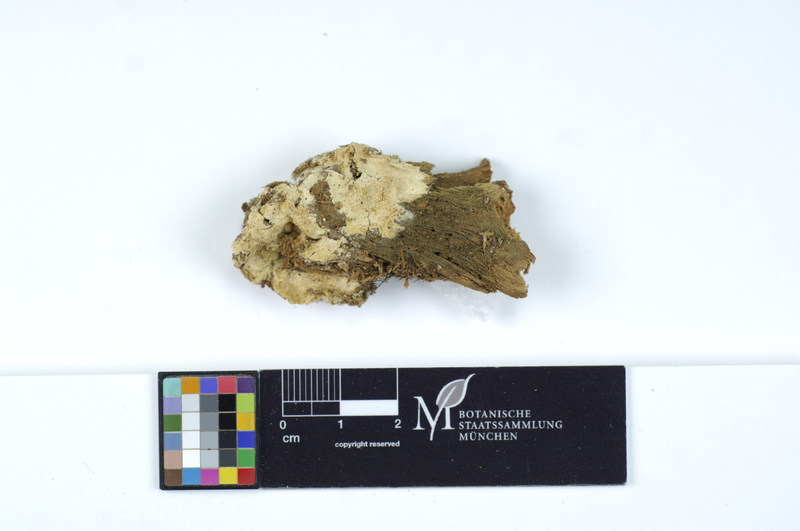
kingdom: Plantae
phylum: Tracheophyta
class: Pinopsida
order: Pinales
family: Pinaceae
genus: Picea
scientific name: Picea
